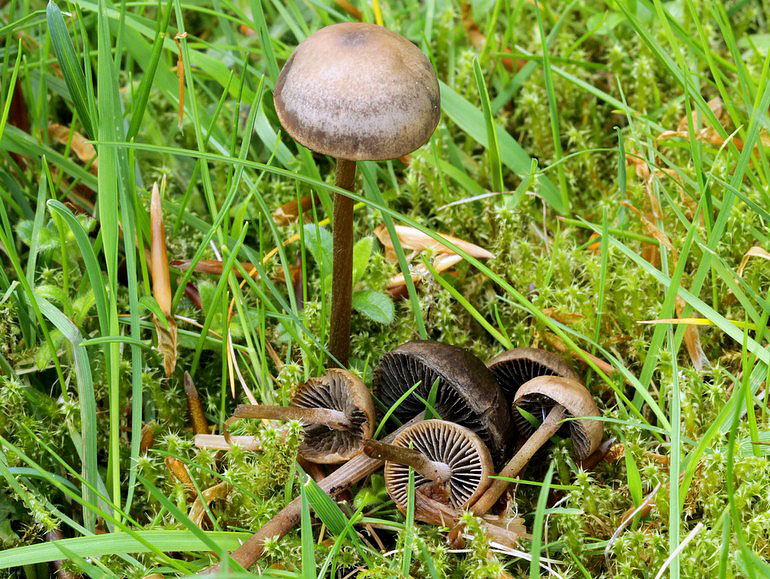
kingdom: Fungi
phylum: Basidiomycota
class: Agaricomycetes
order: Agaricales
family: Bolbitiaceae
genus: Panaeolus
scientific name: Panaeolus fimicola
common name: tidlig glanshat
